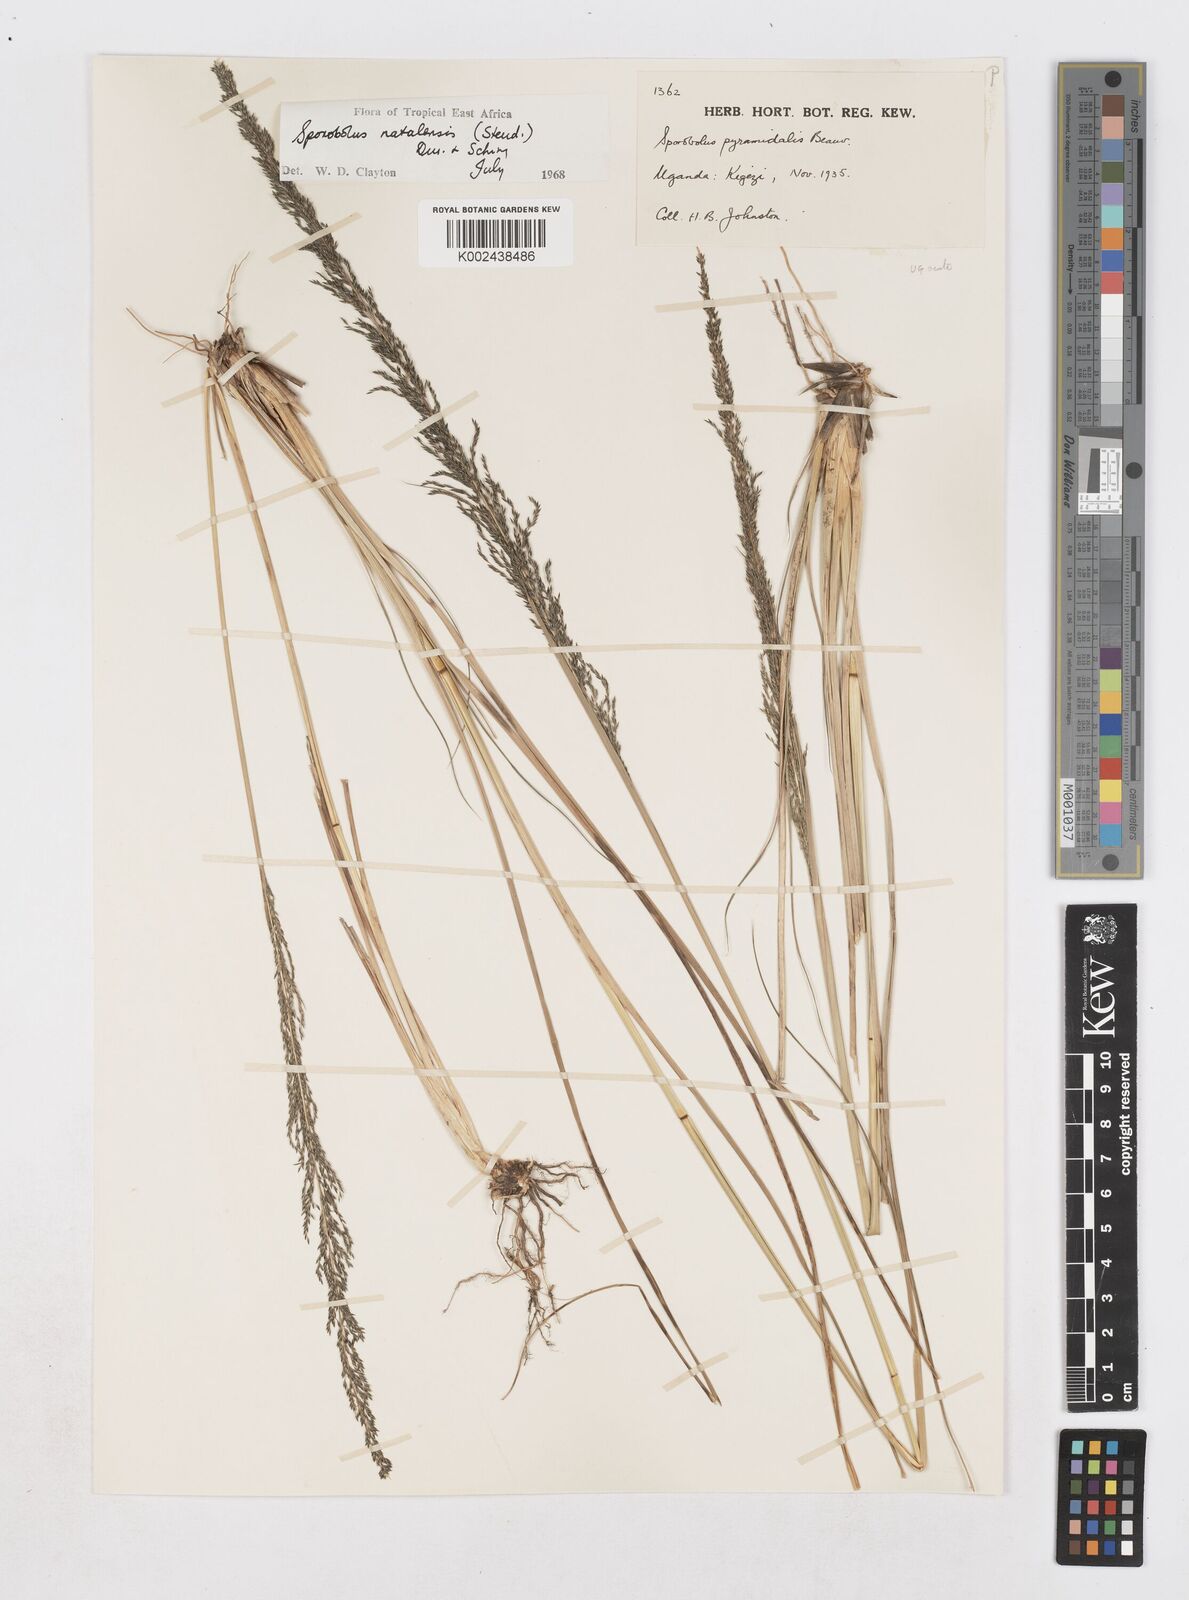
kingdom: Plantae
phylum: Tracheophyta
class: Liliopsida
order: Poales
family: Poaceae
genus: Sporobolus
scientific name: Sporobolus natalensis
